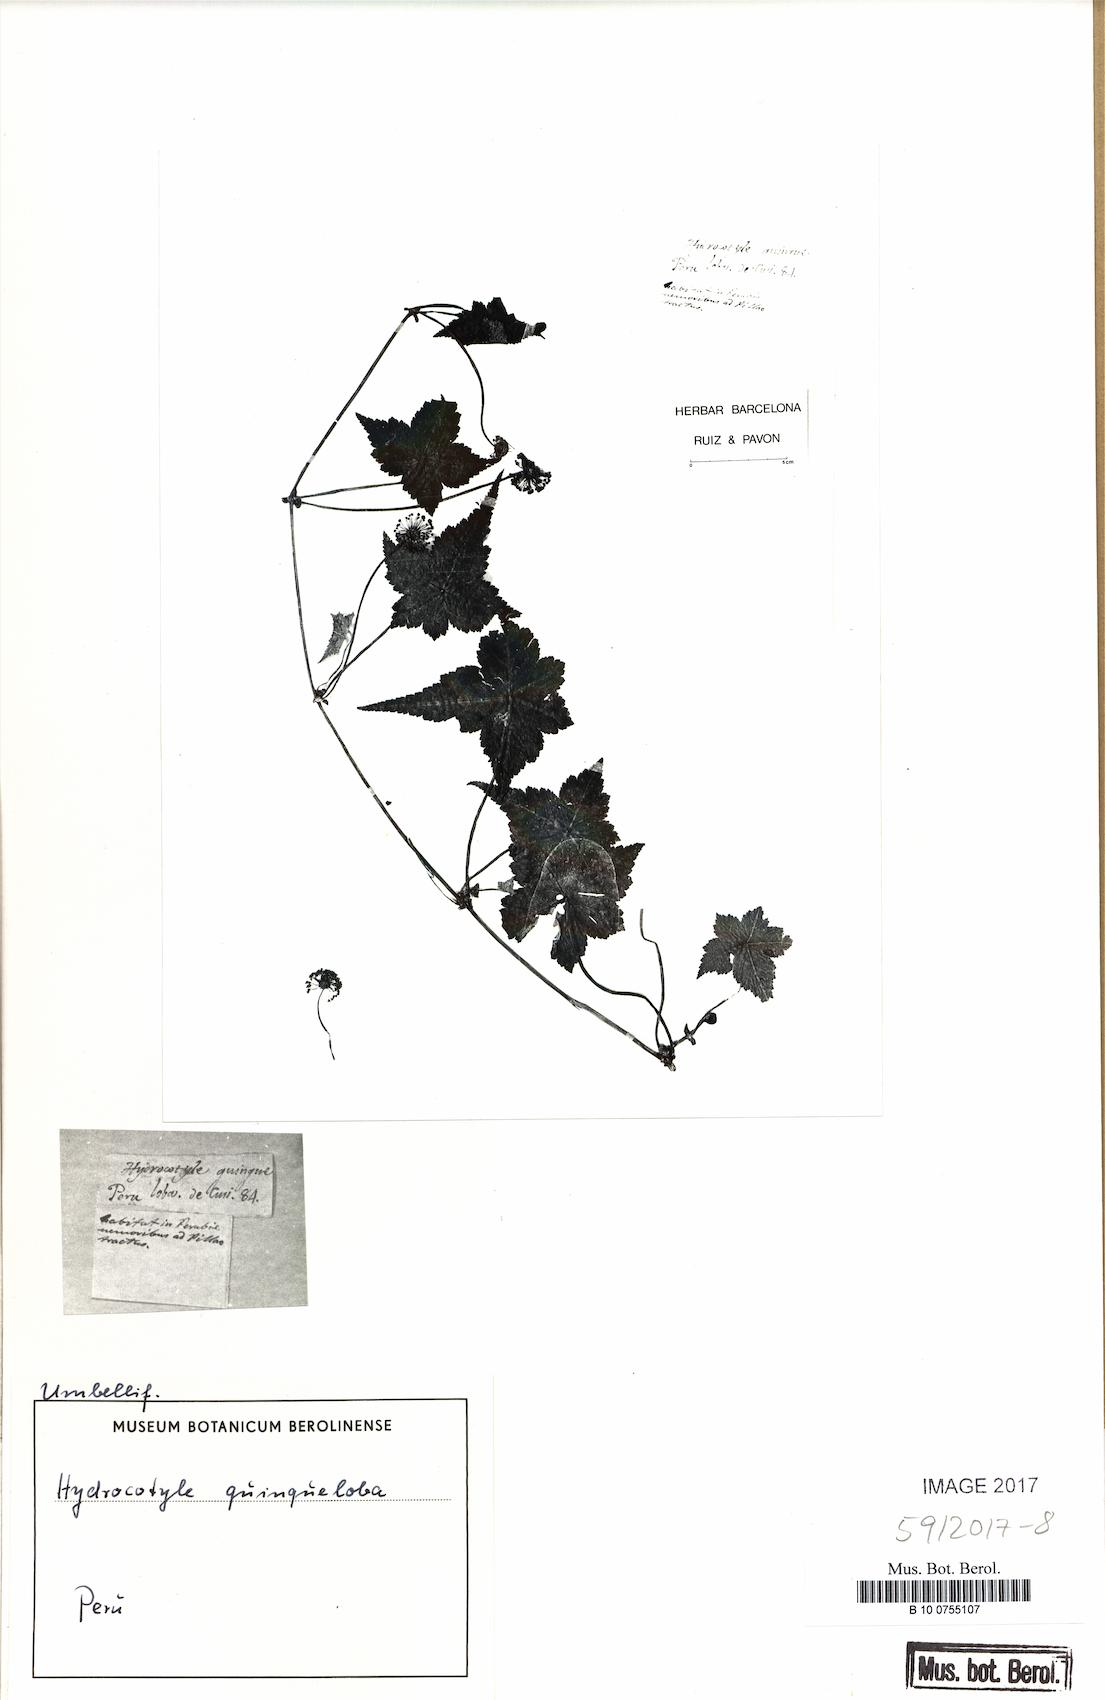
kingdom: Plantae
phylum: Tracheophyta
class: Magnoliopsida
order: Apiales
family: Araliaceae
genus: Hydrocotyle
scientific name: Hydrocotyle quinqueloba
